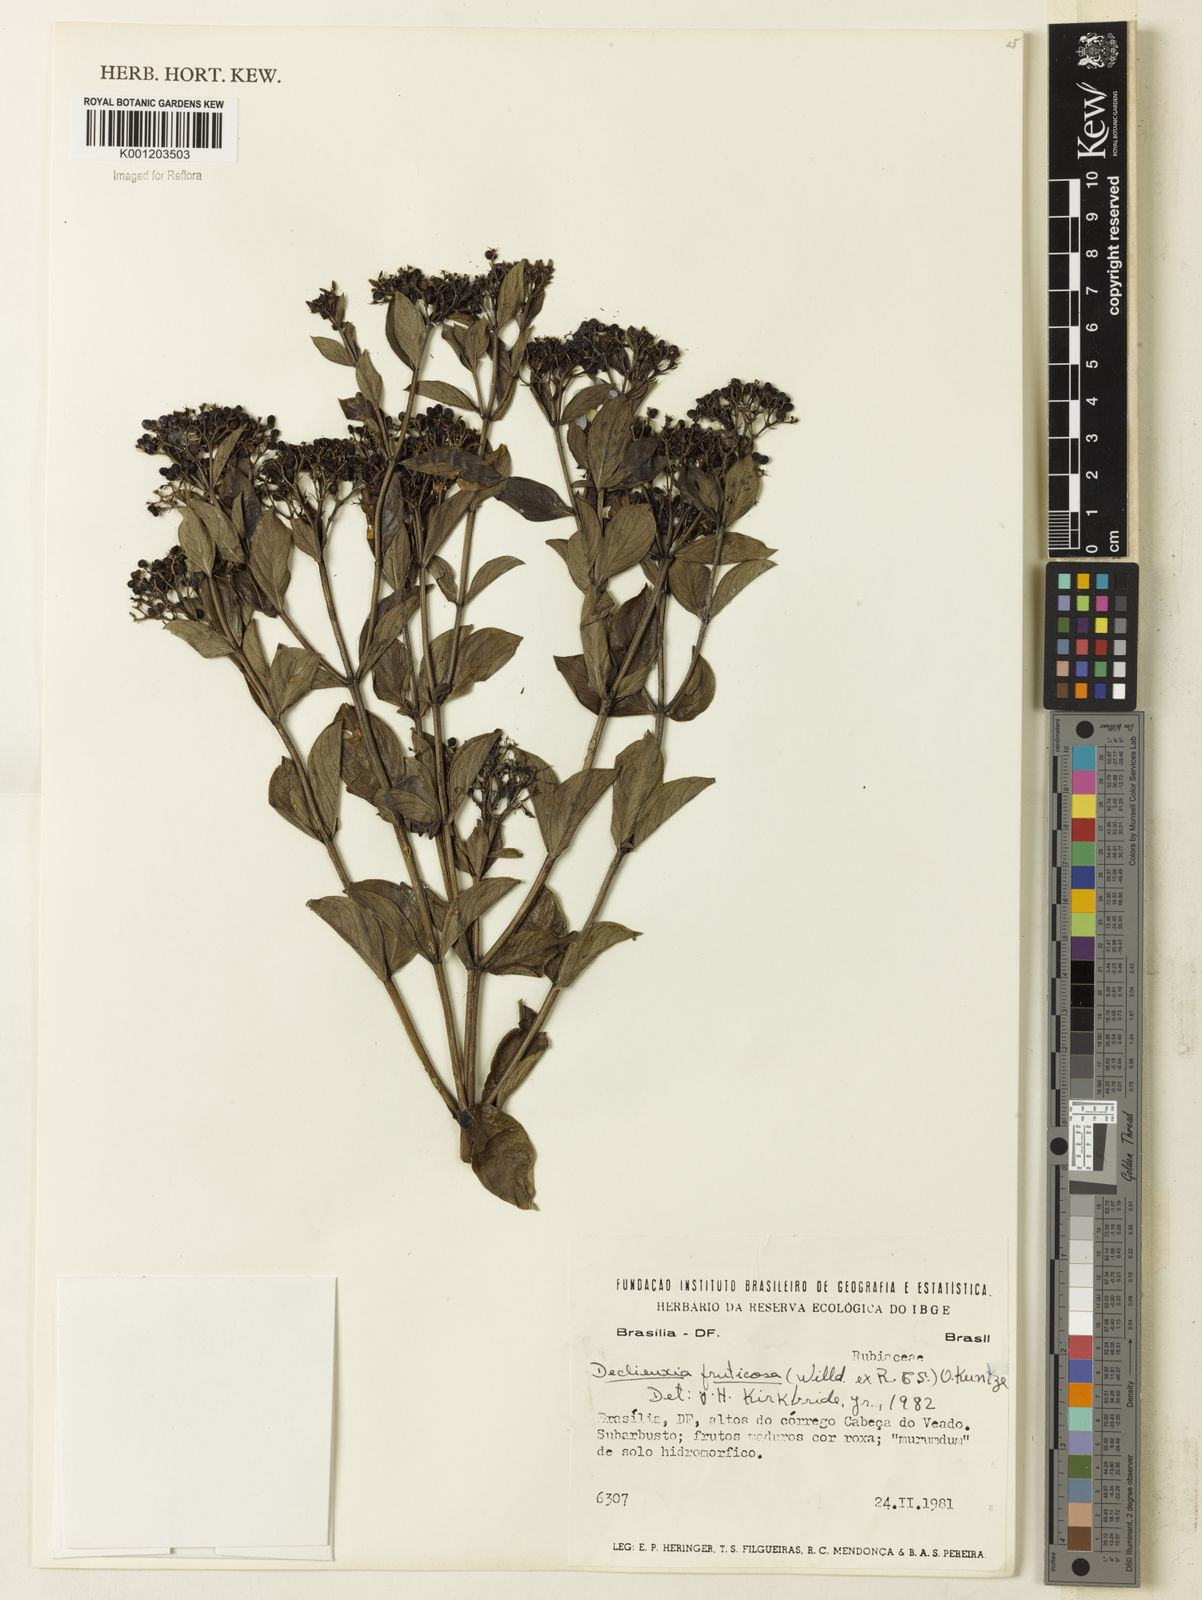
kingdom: Plantae
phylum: Tracheophyta
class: Magnoliopsida
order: Gentianales
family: Rubiaceae
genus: Declieuxia
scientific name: Declieuxia fruticosa
